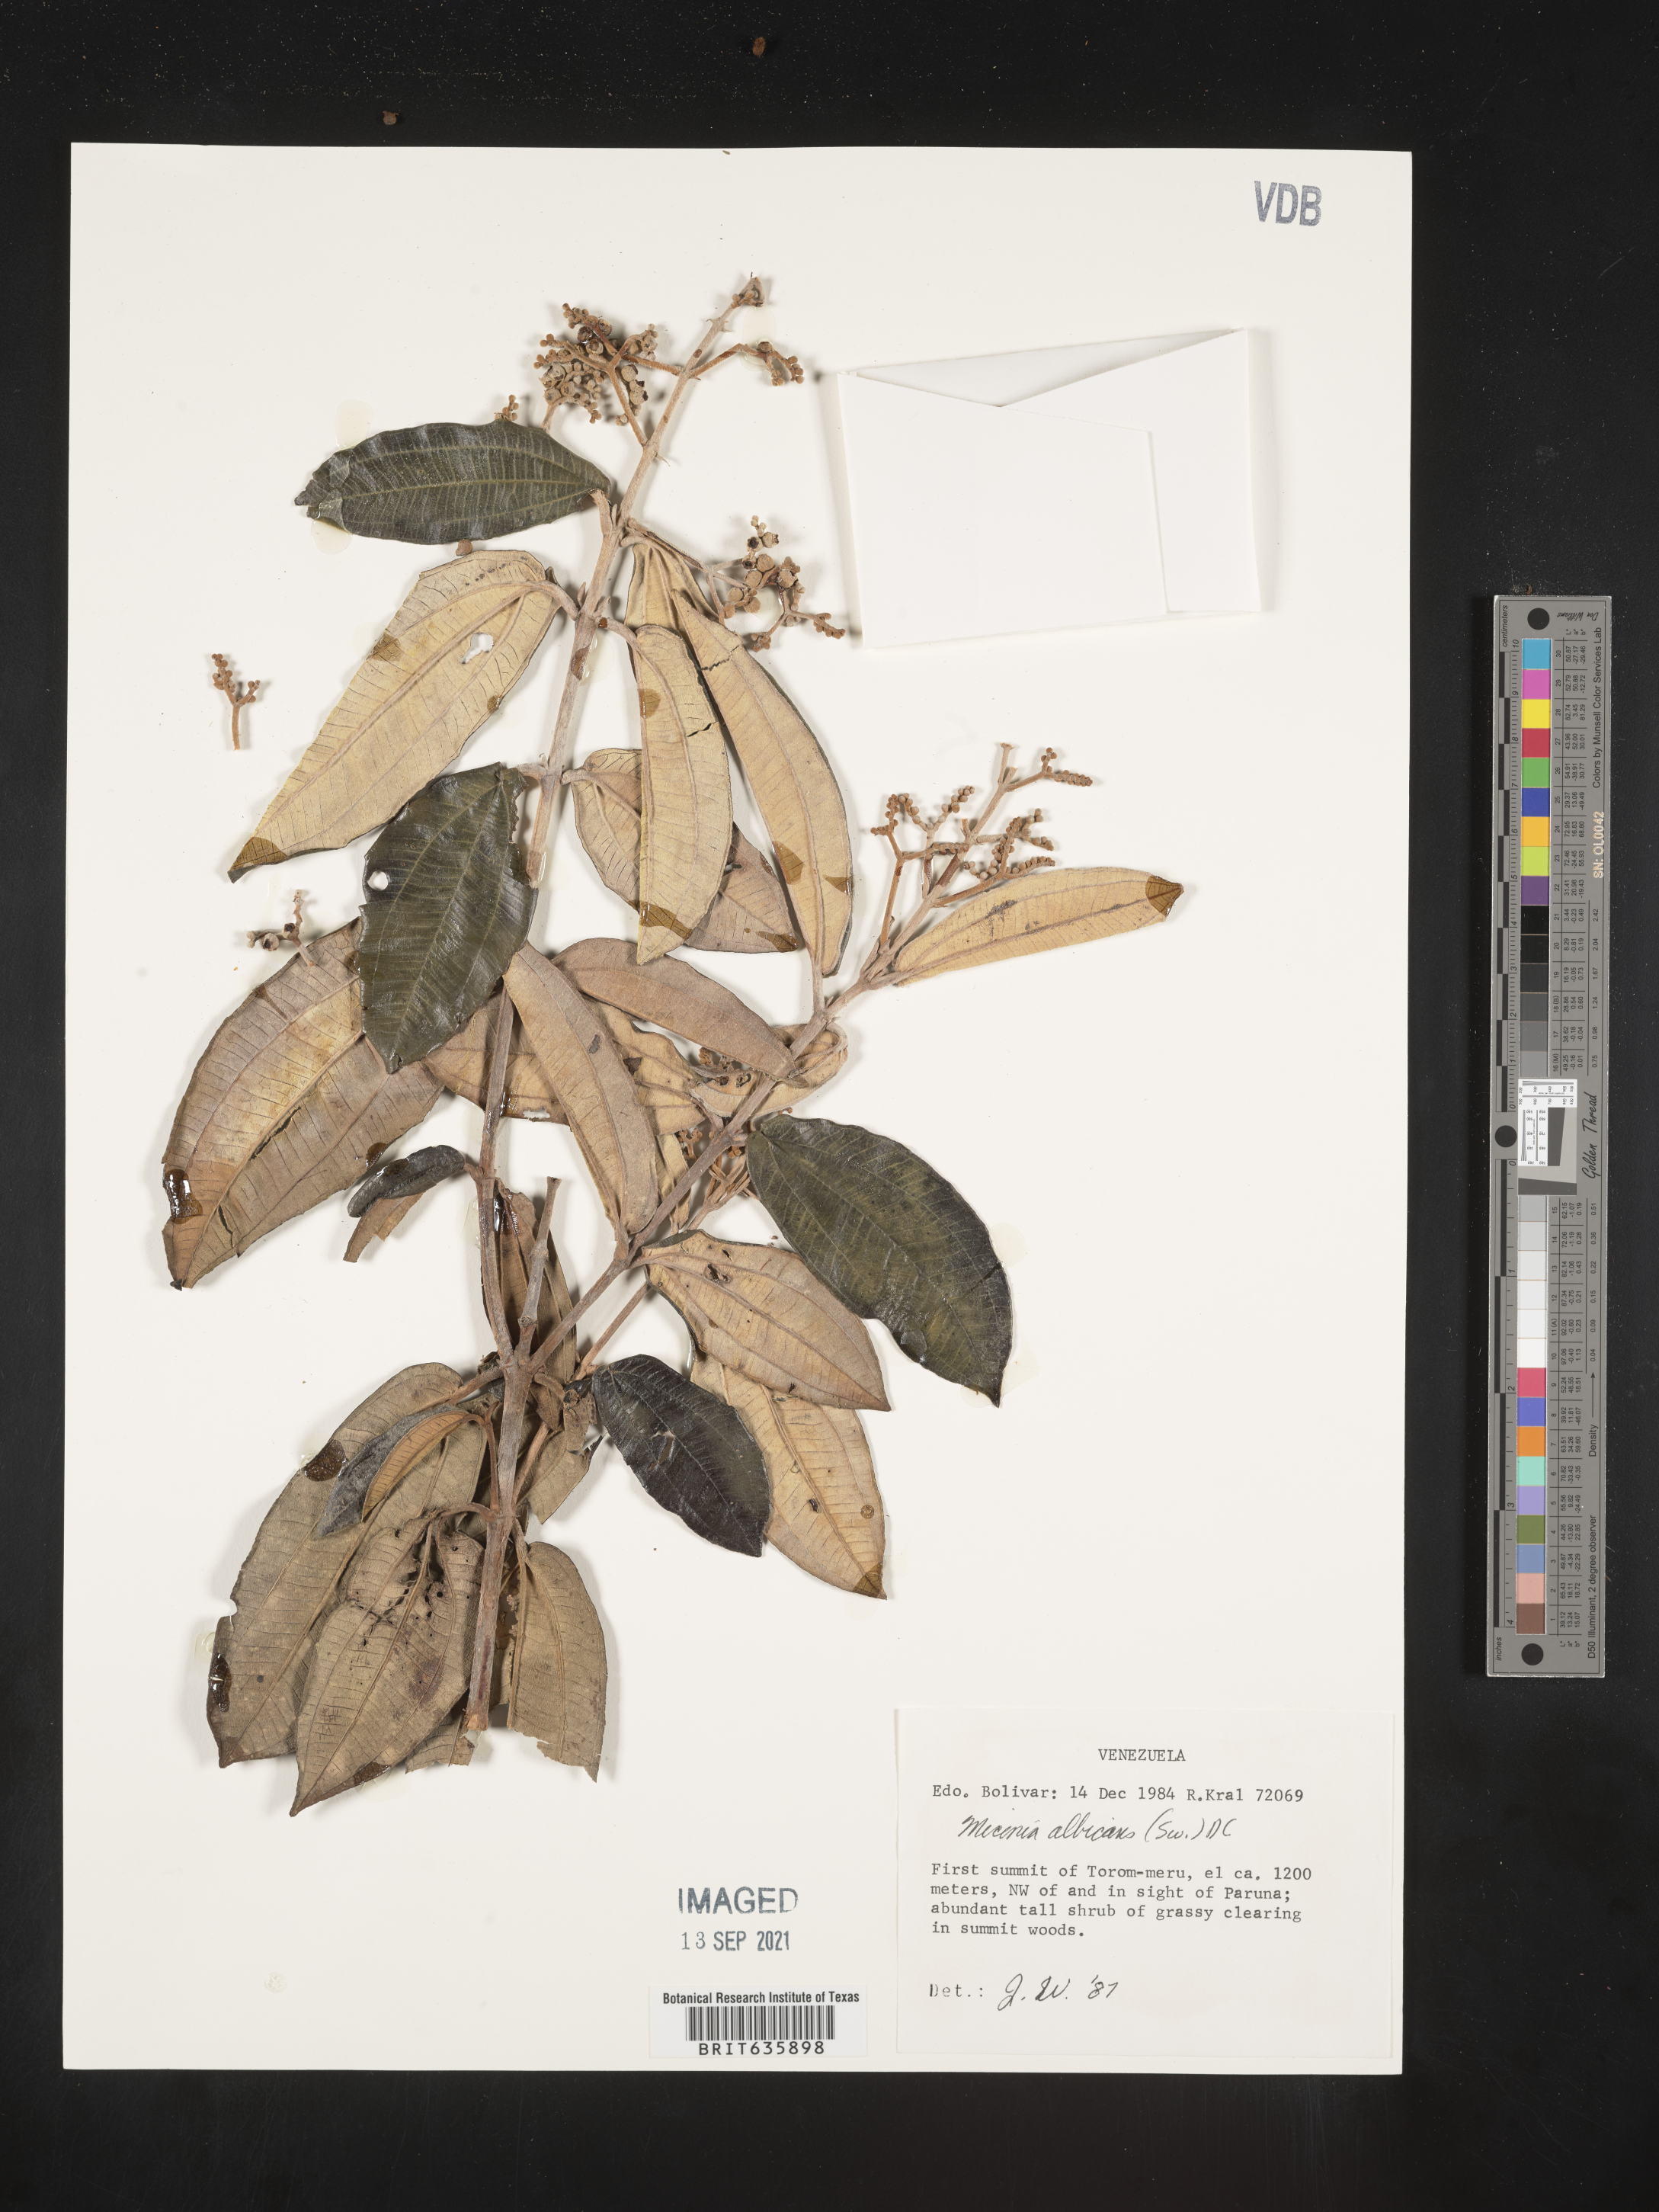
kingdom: Plantae
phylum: Tracheophyta
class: Magnoliopsida
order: Myrtales
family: Melastomataceae
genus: Miconia
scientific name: Miconia
